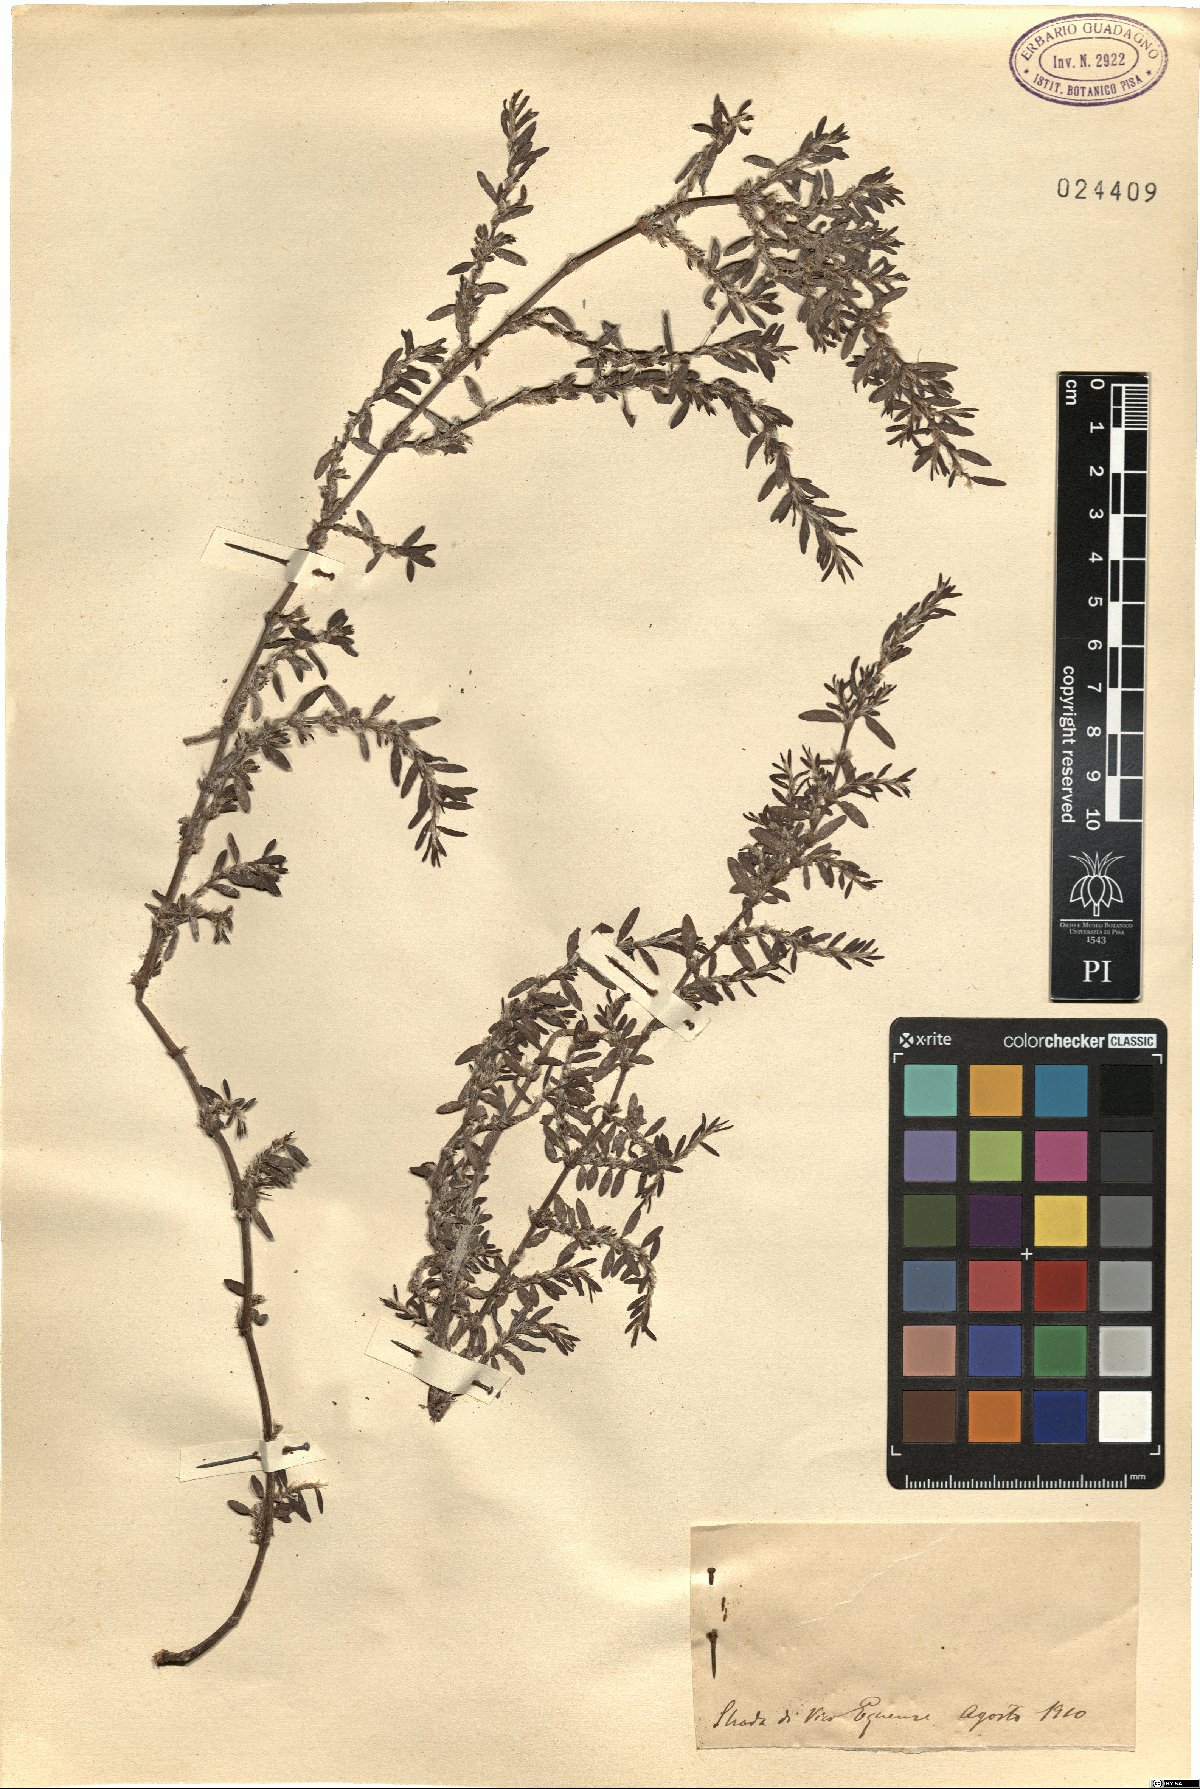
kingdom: Plantae
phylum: Tracheophyta
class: Magnoliopsida
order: Caryophyllales
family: Polygonaceae
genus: Polygonum
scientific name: Polygonum
